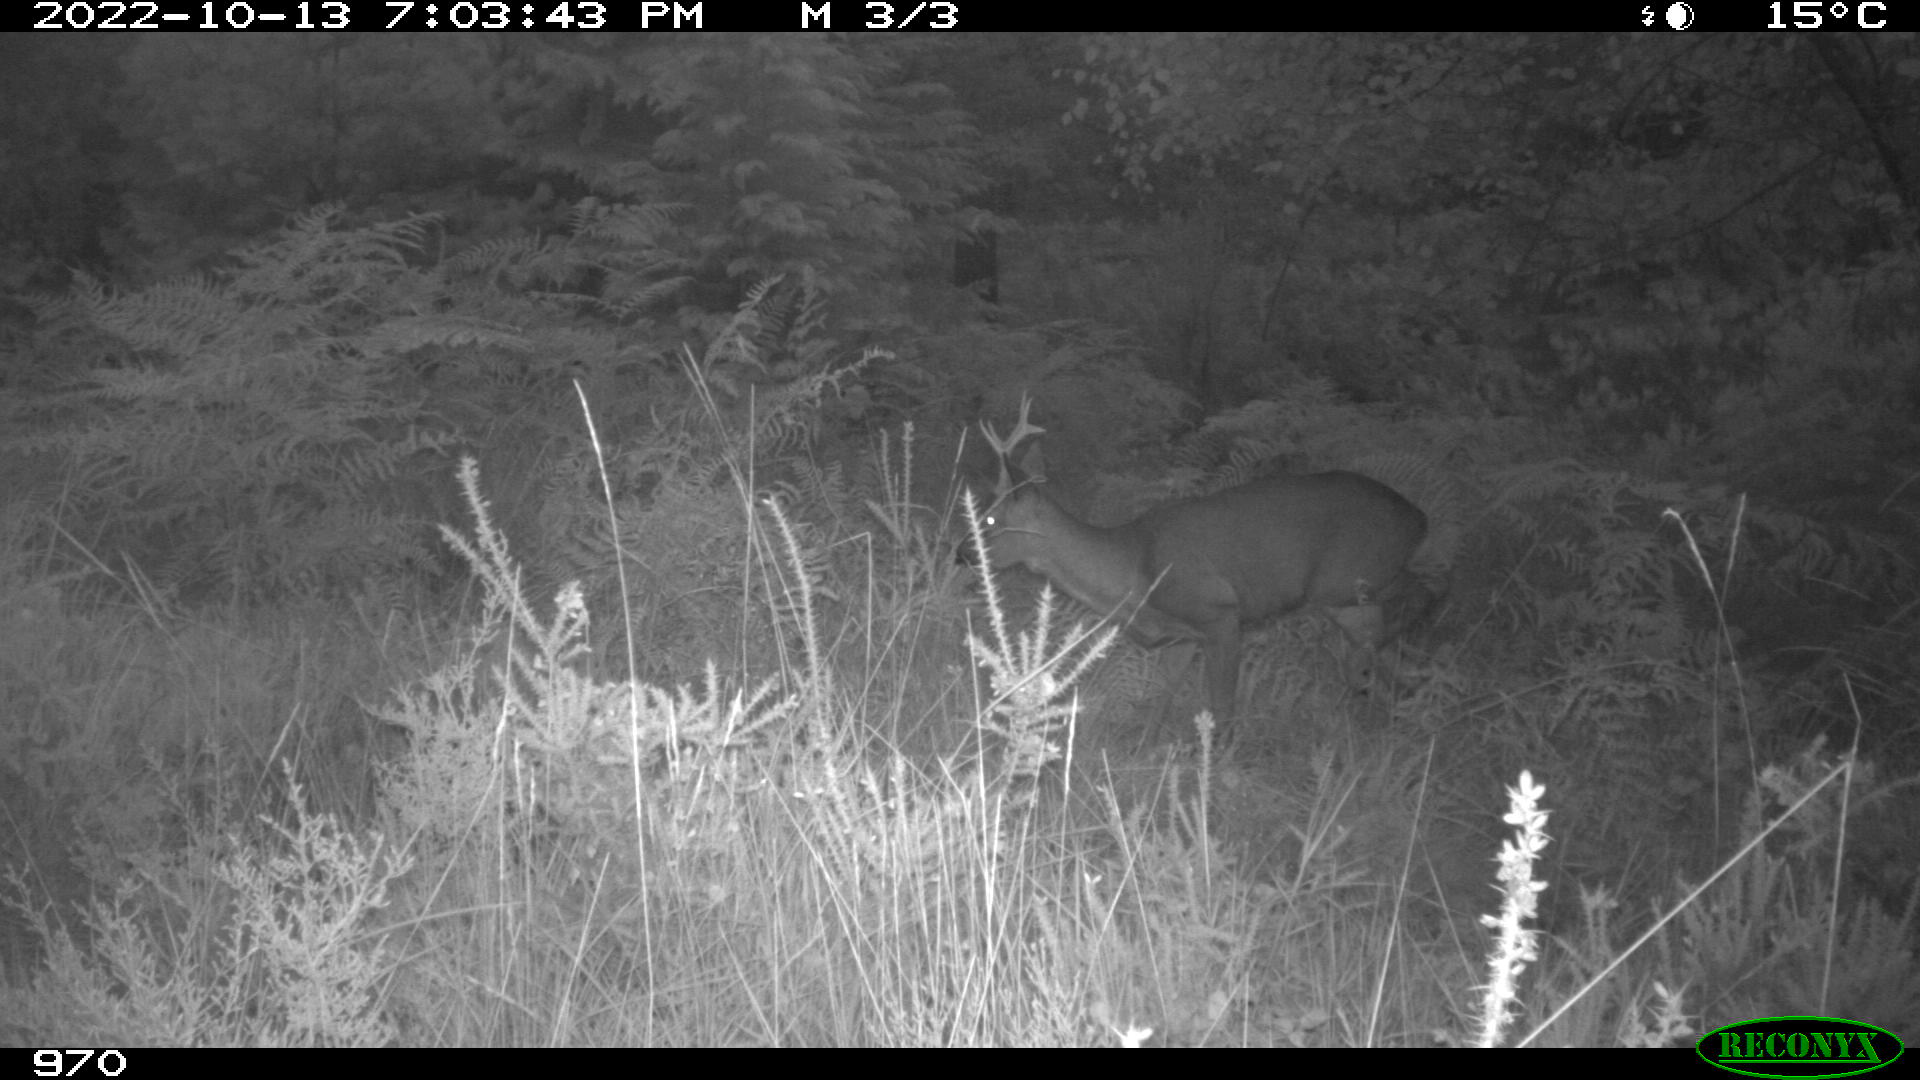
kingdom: Animalia
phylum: Chordata
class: Mammalia
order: Artiodactyla
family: Cervidae
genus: Capreolus
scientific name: Capreolus capreolus
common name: Western roe deer
